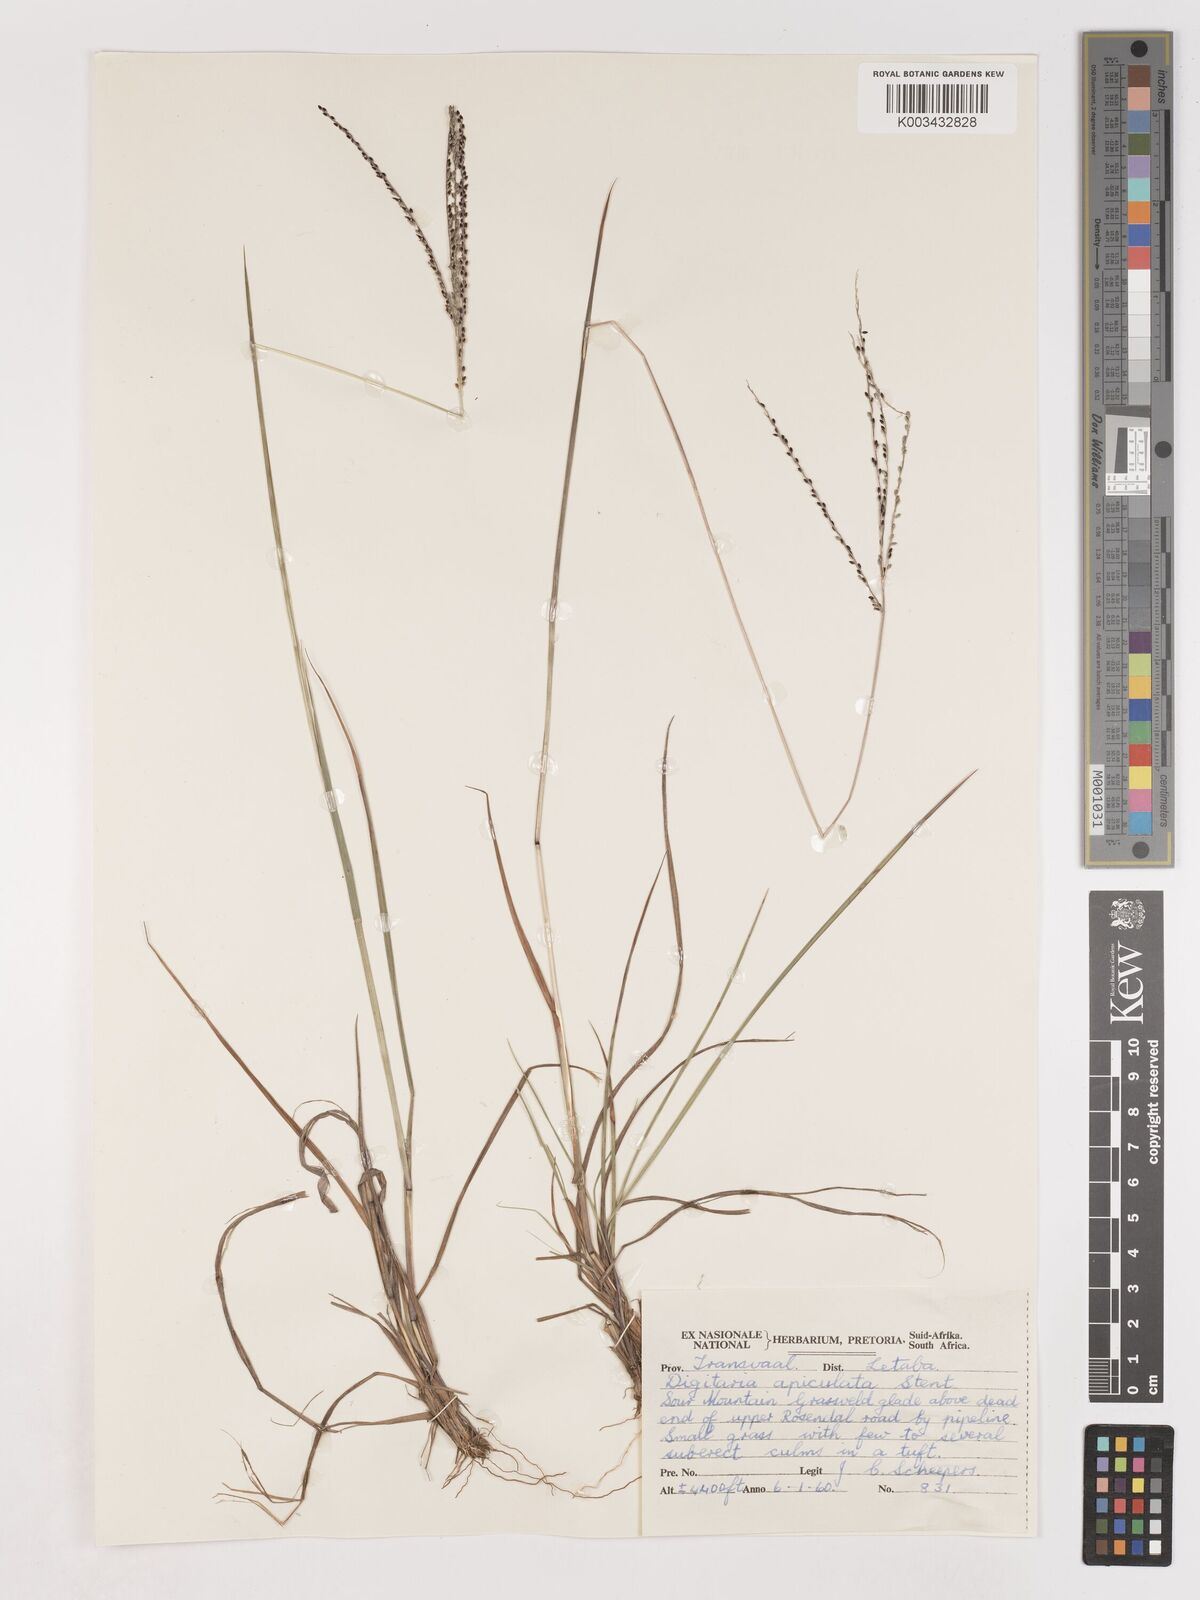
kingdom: Plantae
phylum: Tracheophyta
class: Liliopsida
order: Poales
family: Poaceae
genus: Digitaria
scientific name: Digitaria maitlandii
